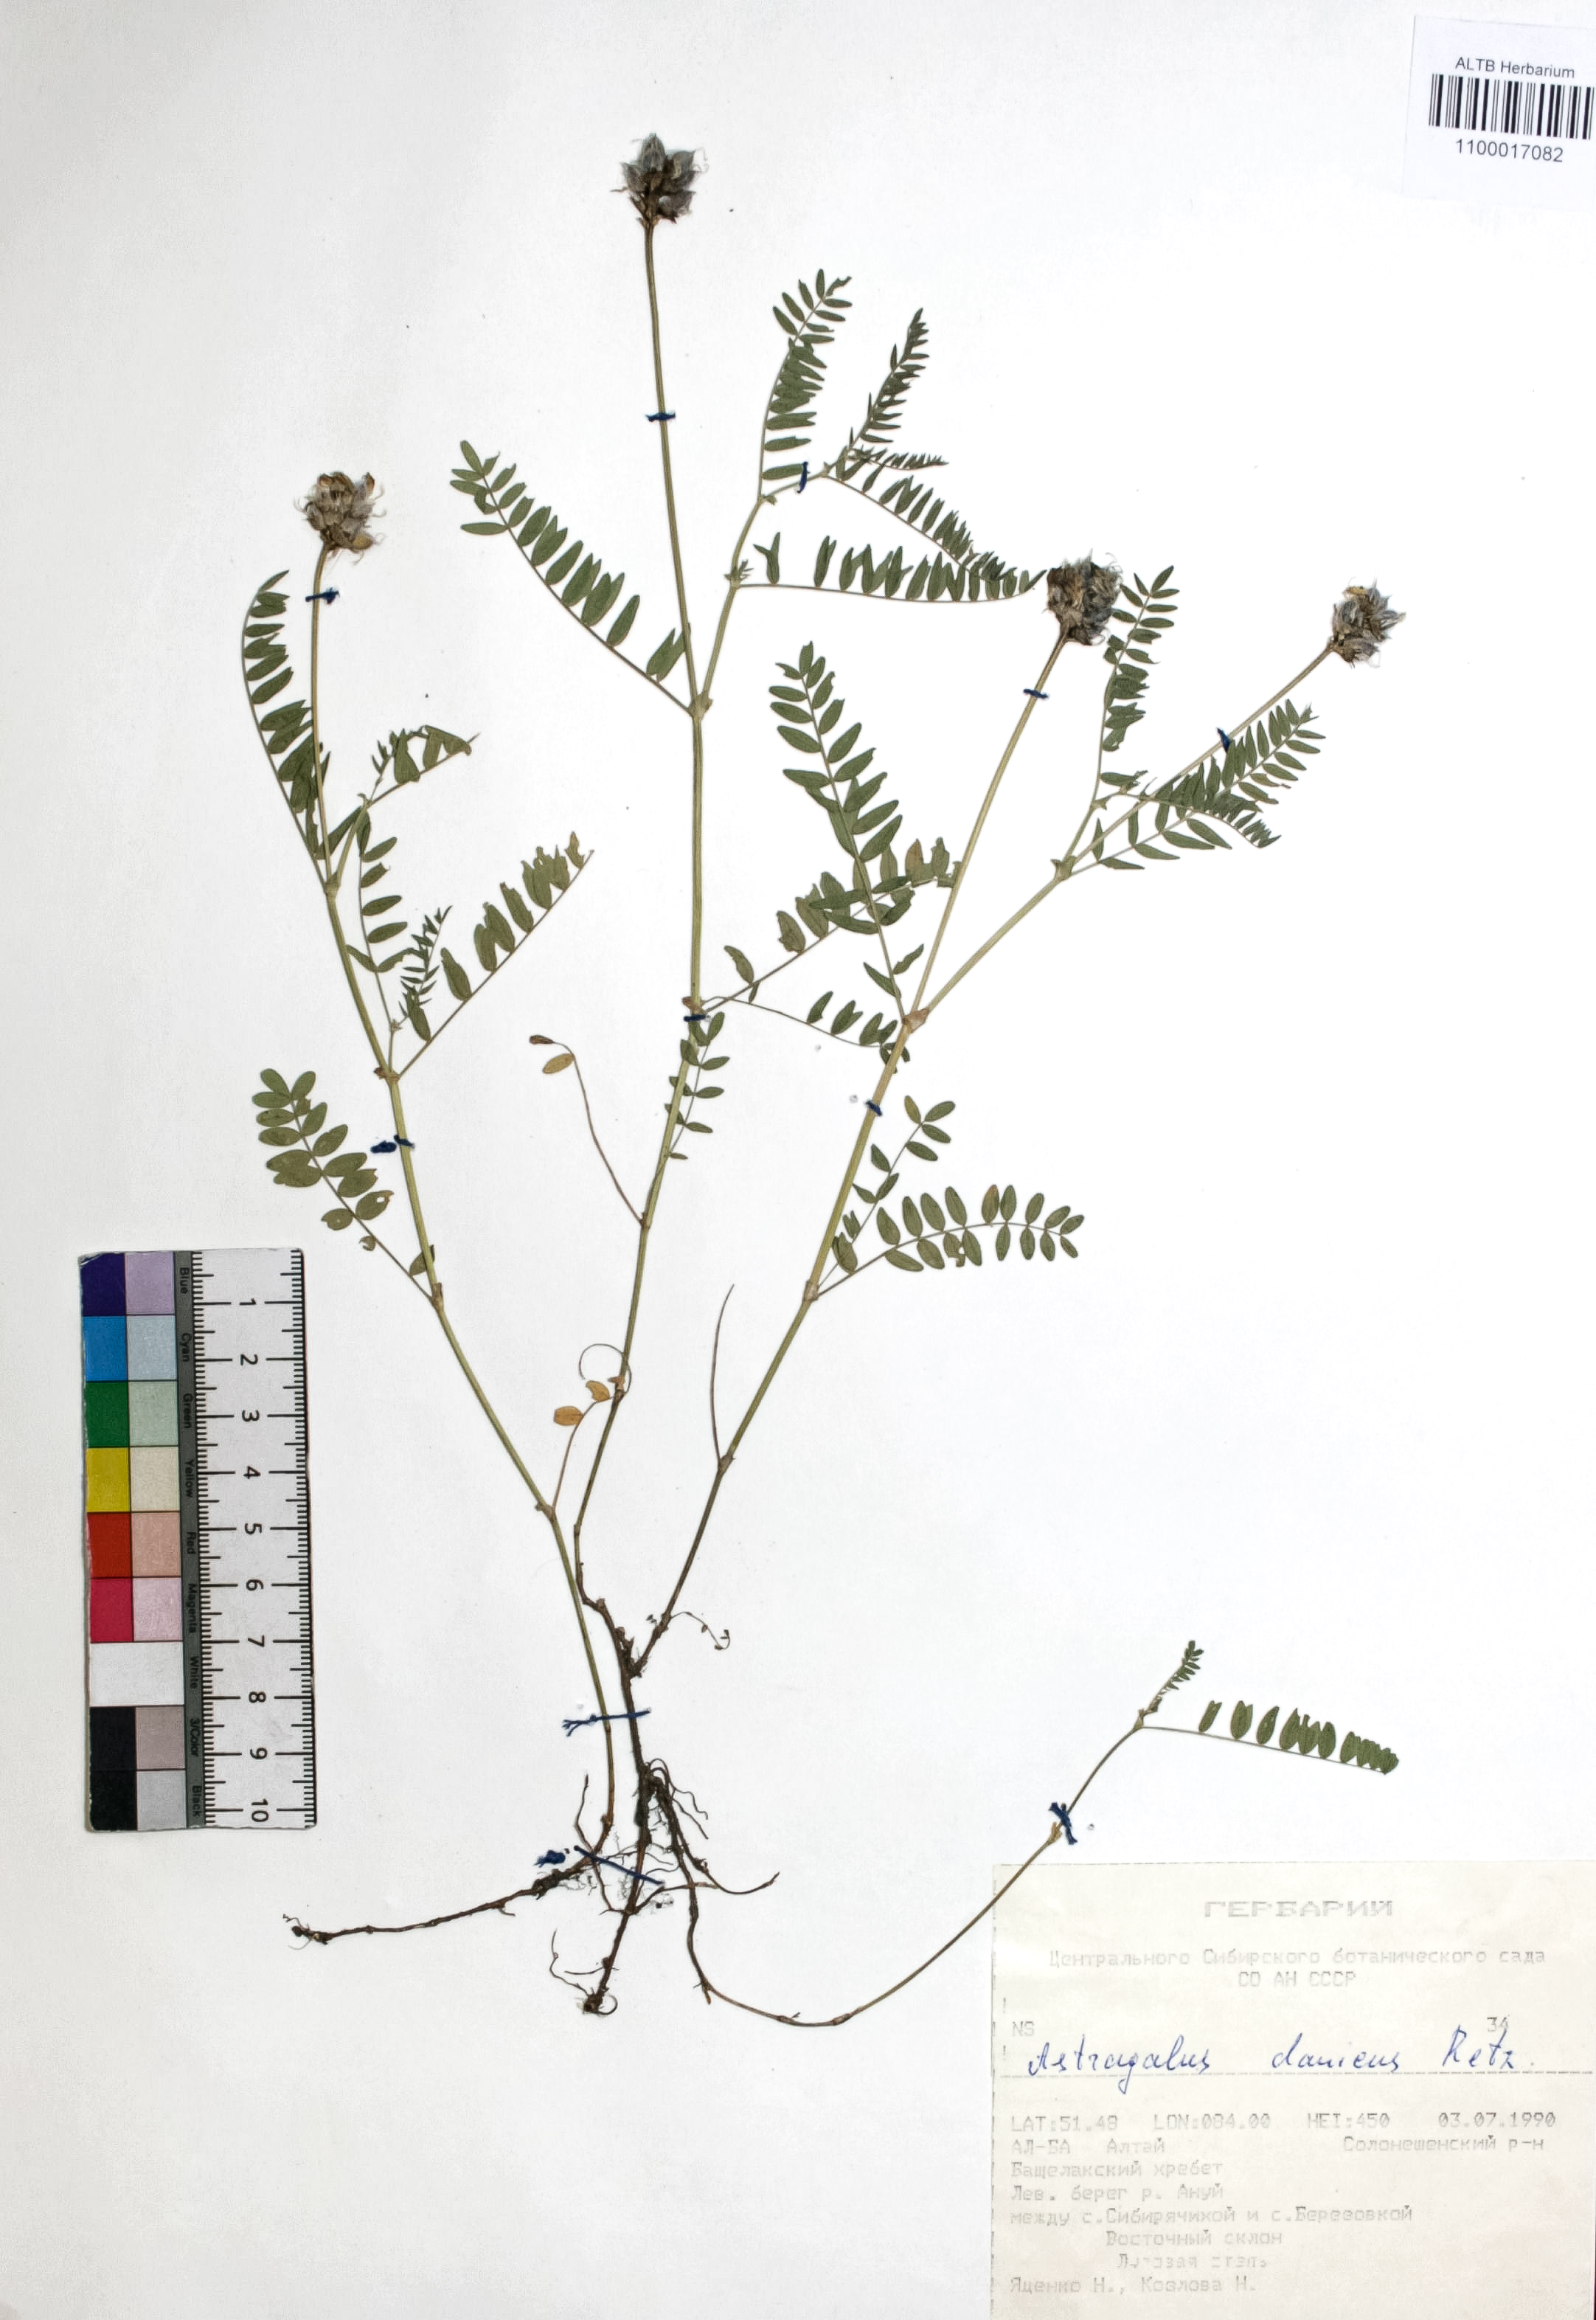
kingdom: Plantae
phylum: Tracheophyta
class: Magnoliopsida
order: Fabales
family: Fabaceae
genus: Astragalus
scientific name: Astragalus danicus
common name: Purple milk-vetch
